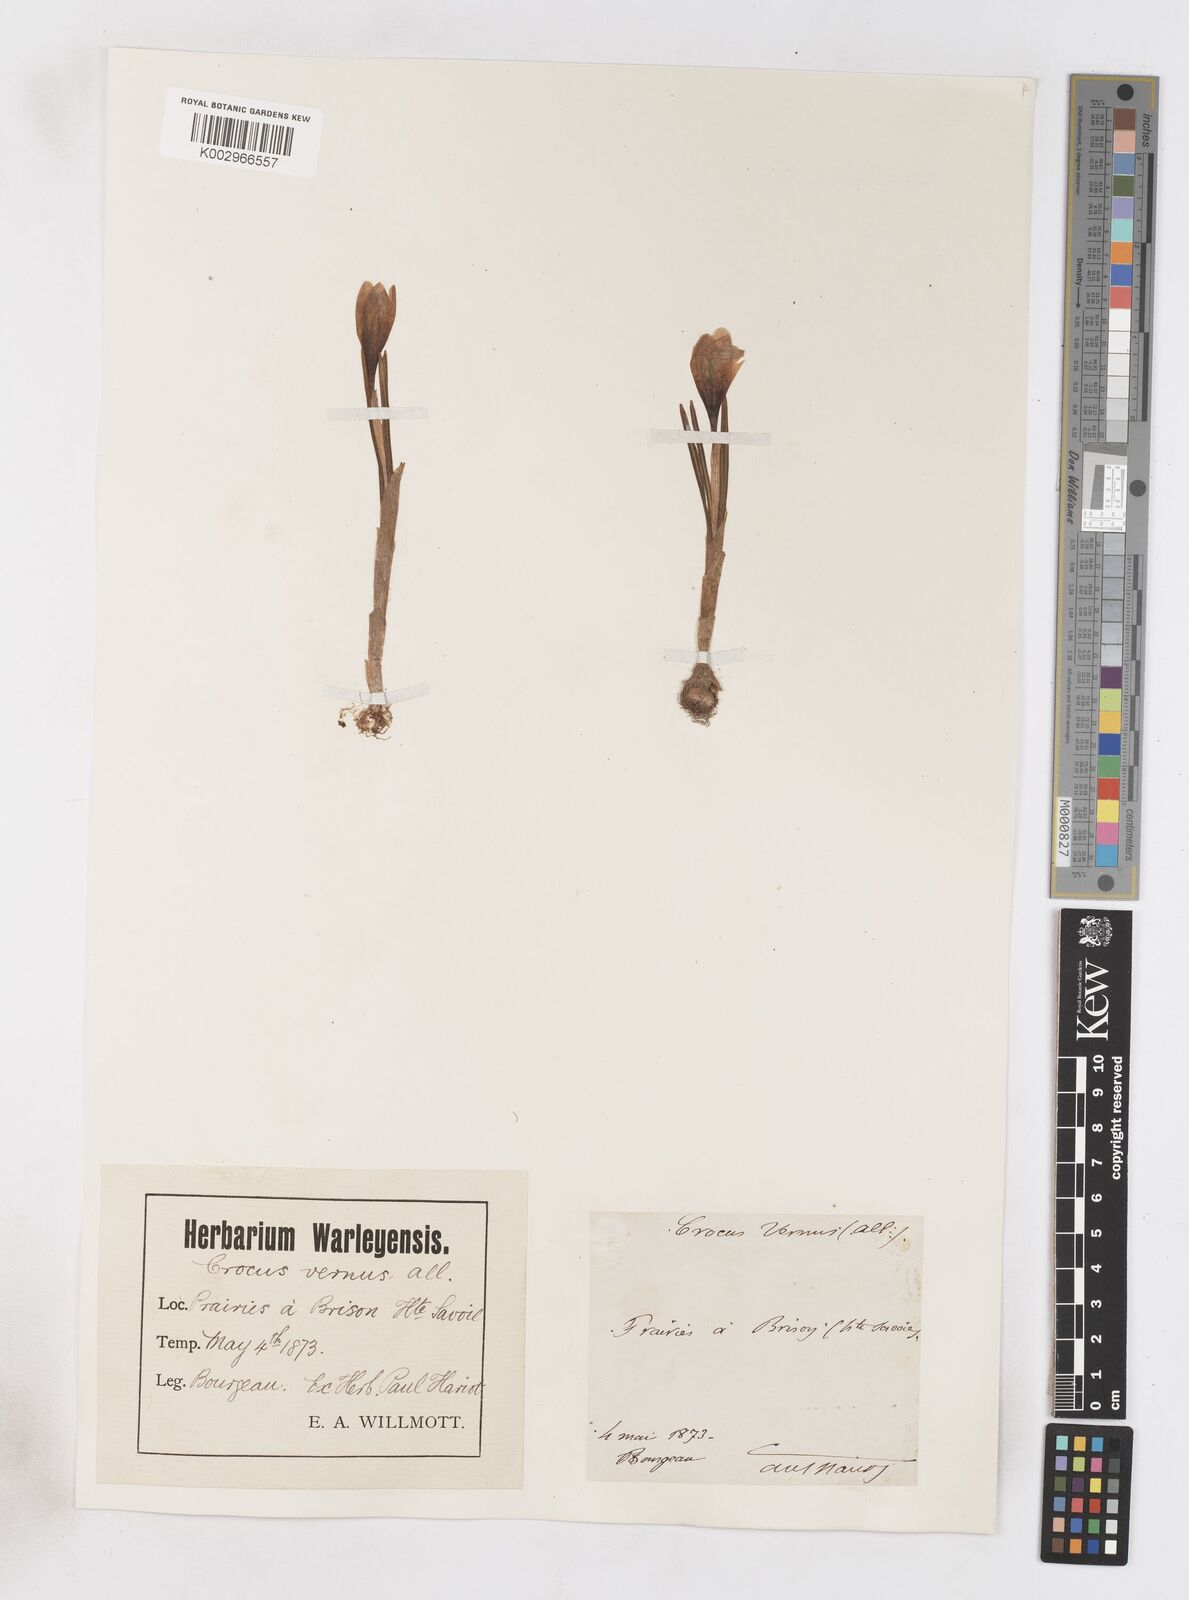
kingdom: Plantae
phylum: Tracheophyta
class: Liliopsida
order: Asparagales
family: Iridaceae
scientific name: Iridaceae
